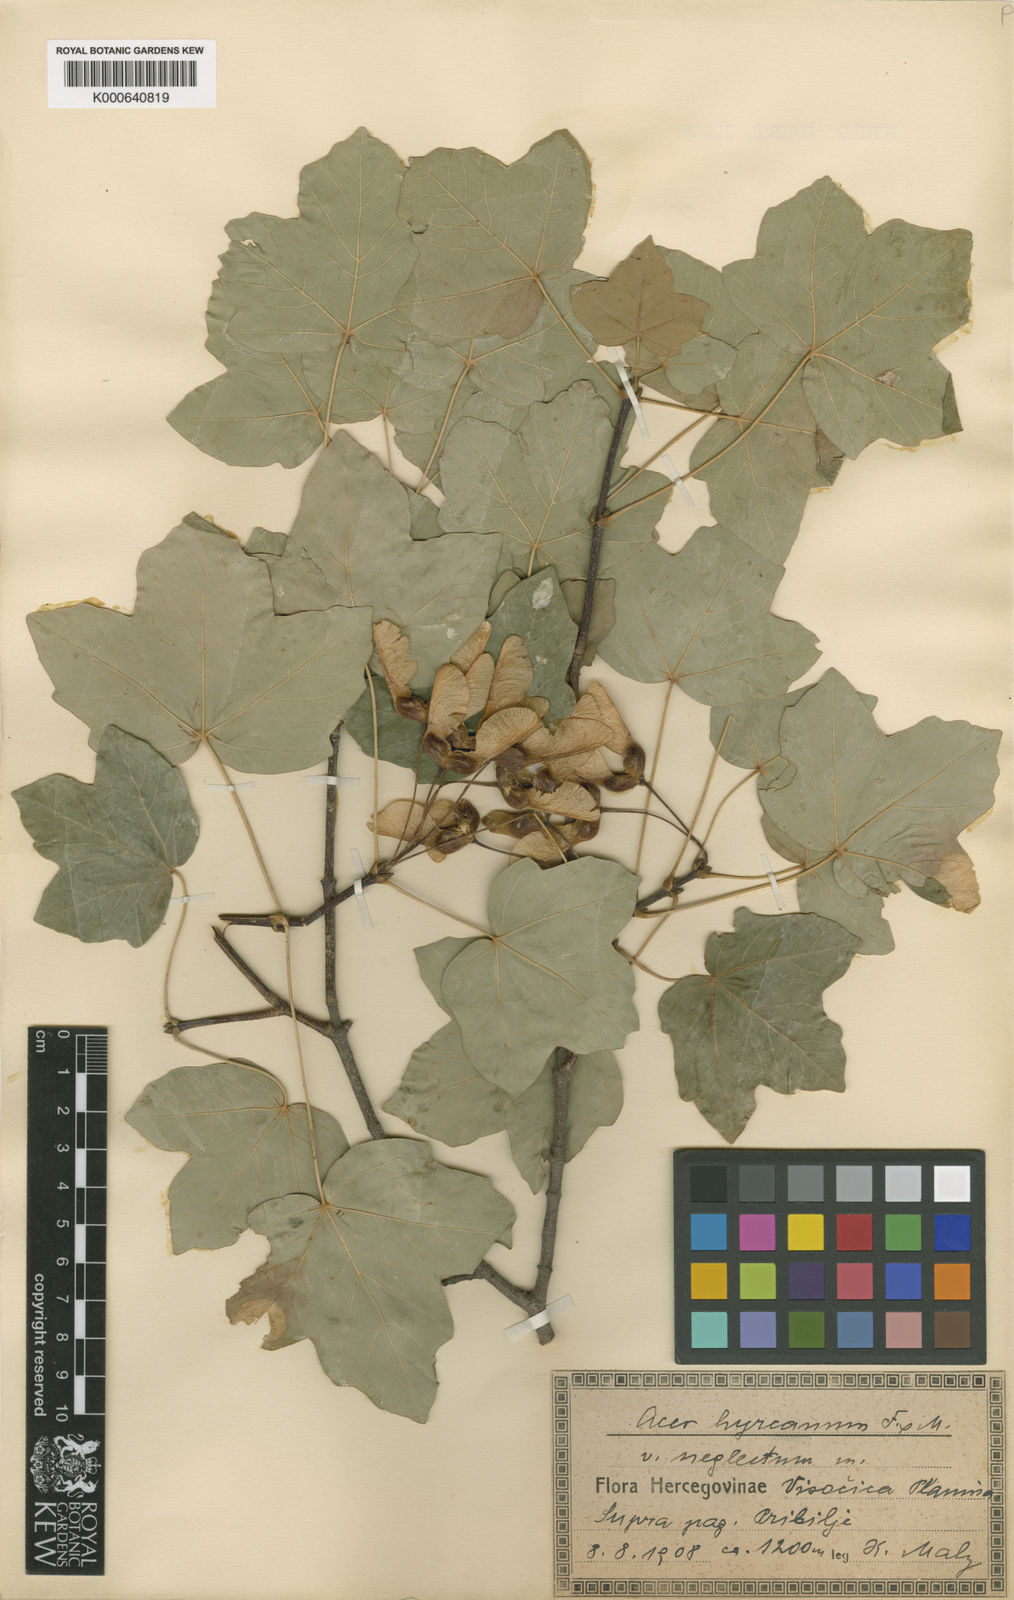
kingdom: Plantae
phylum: Tracheophyta
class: Magnoliopsida
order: Sapindales
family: Sapindaceae
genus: Acer
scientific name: Acer hyrcanum
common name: Balkan maple
